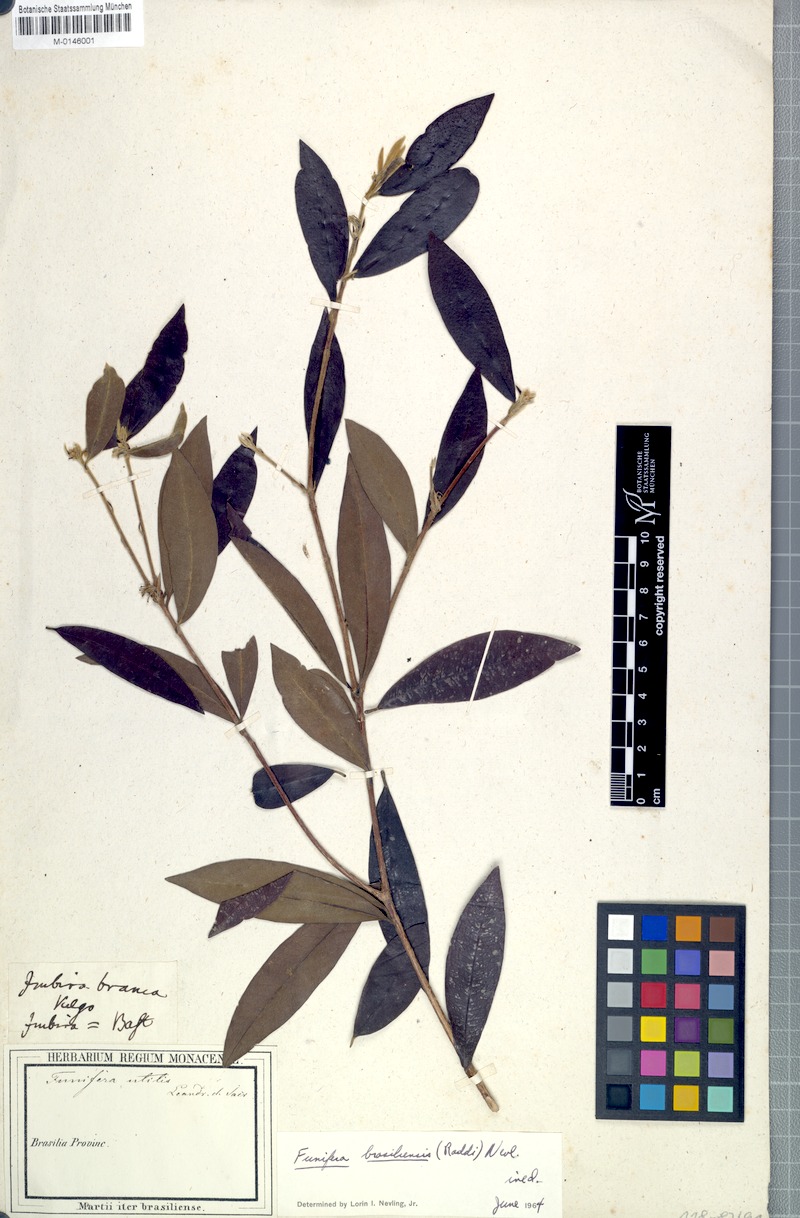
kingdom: Plantae
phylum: Tracheophyta
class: Magnoliopsida
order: Malvales
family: Thymelaeaceae
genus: Funifera
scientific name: Funifera brasiliensis
